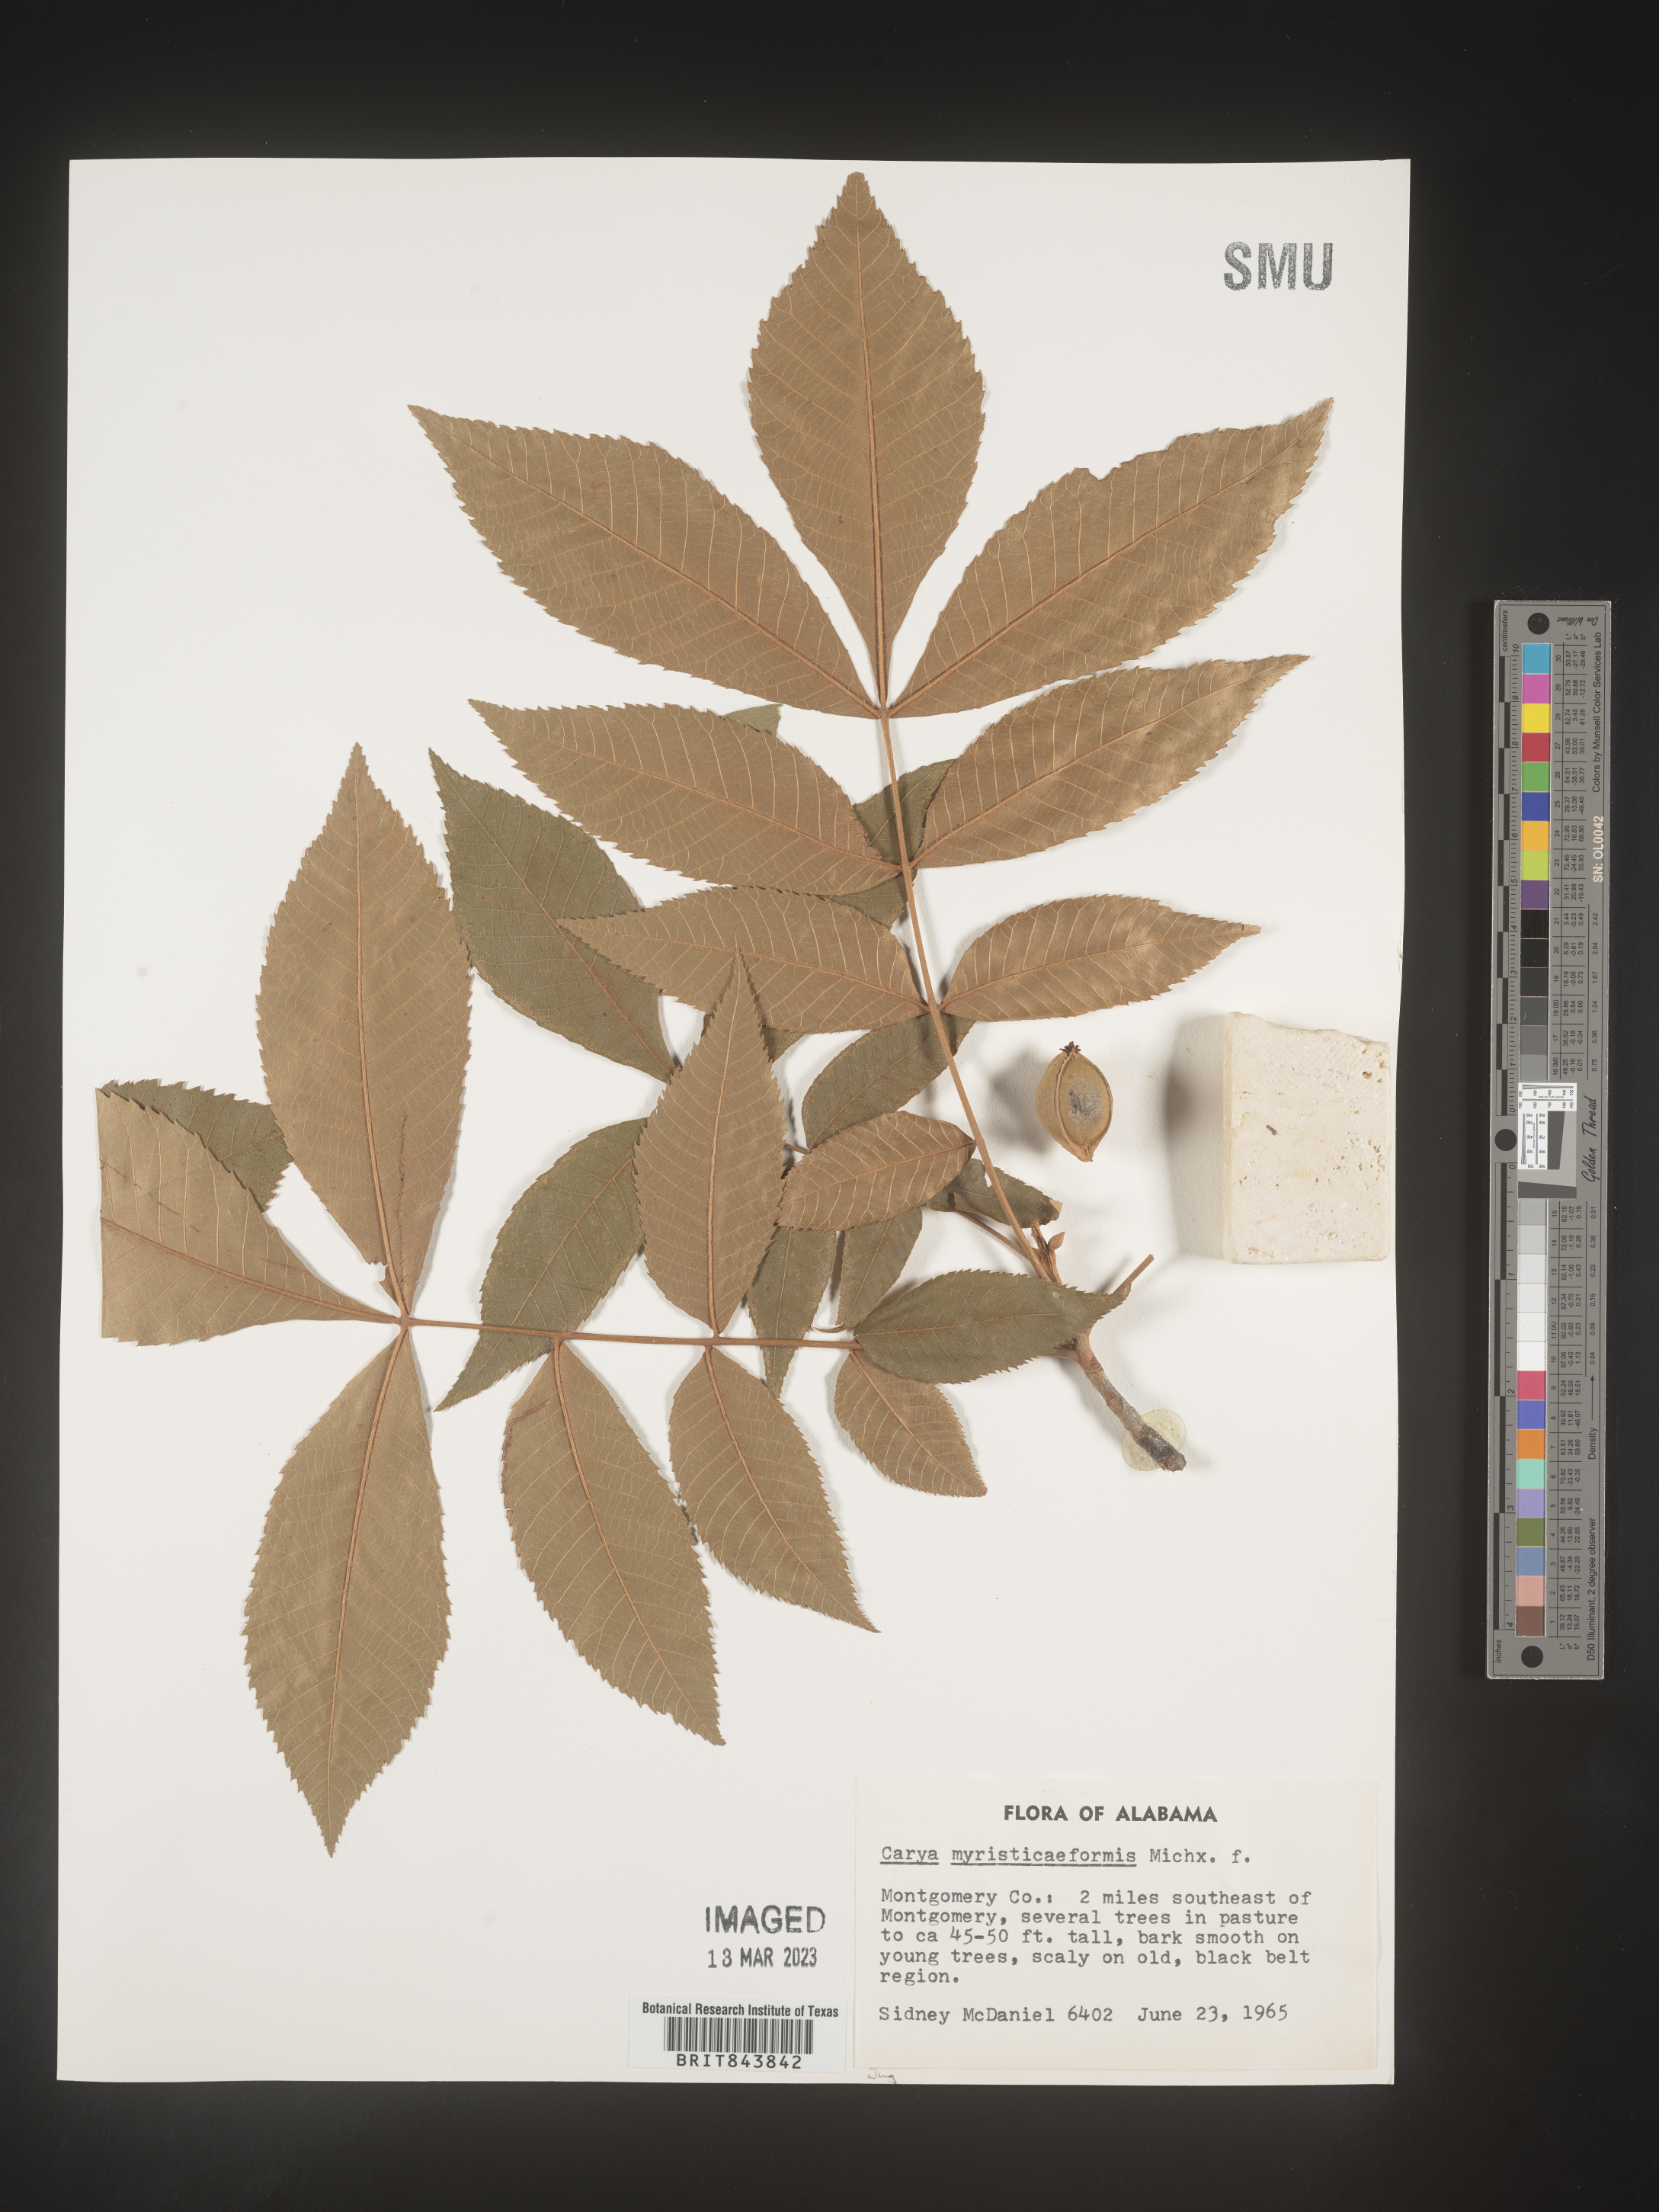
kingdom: Plantae
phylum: Tracheophyta
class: Magnoliopsida
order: Fagales
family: Juglandaceae
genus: Carya
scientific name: Carya myristiciformis
